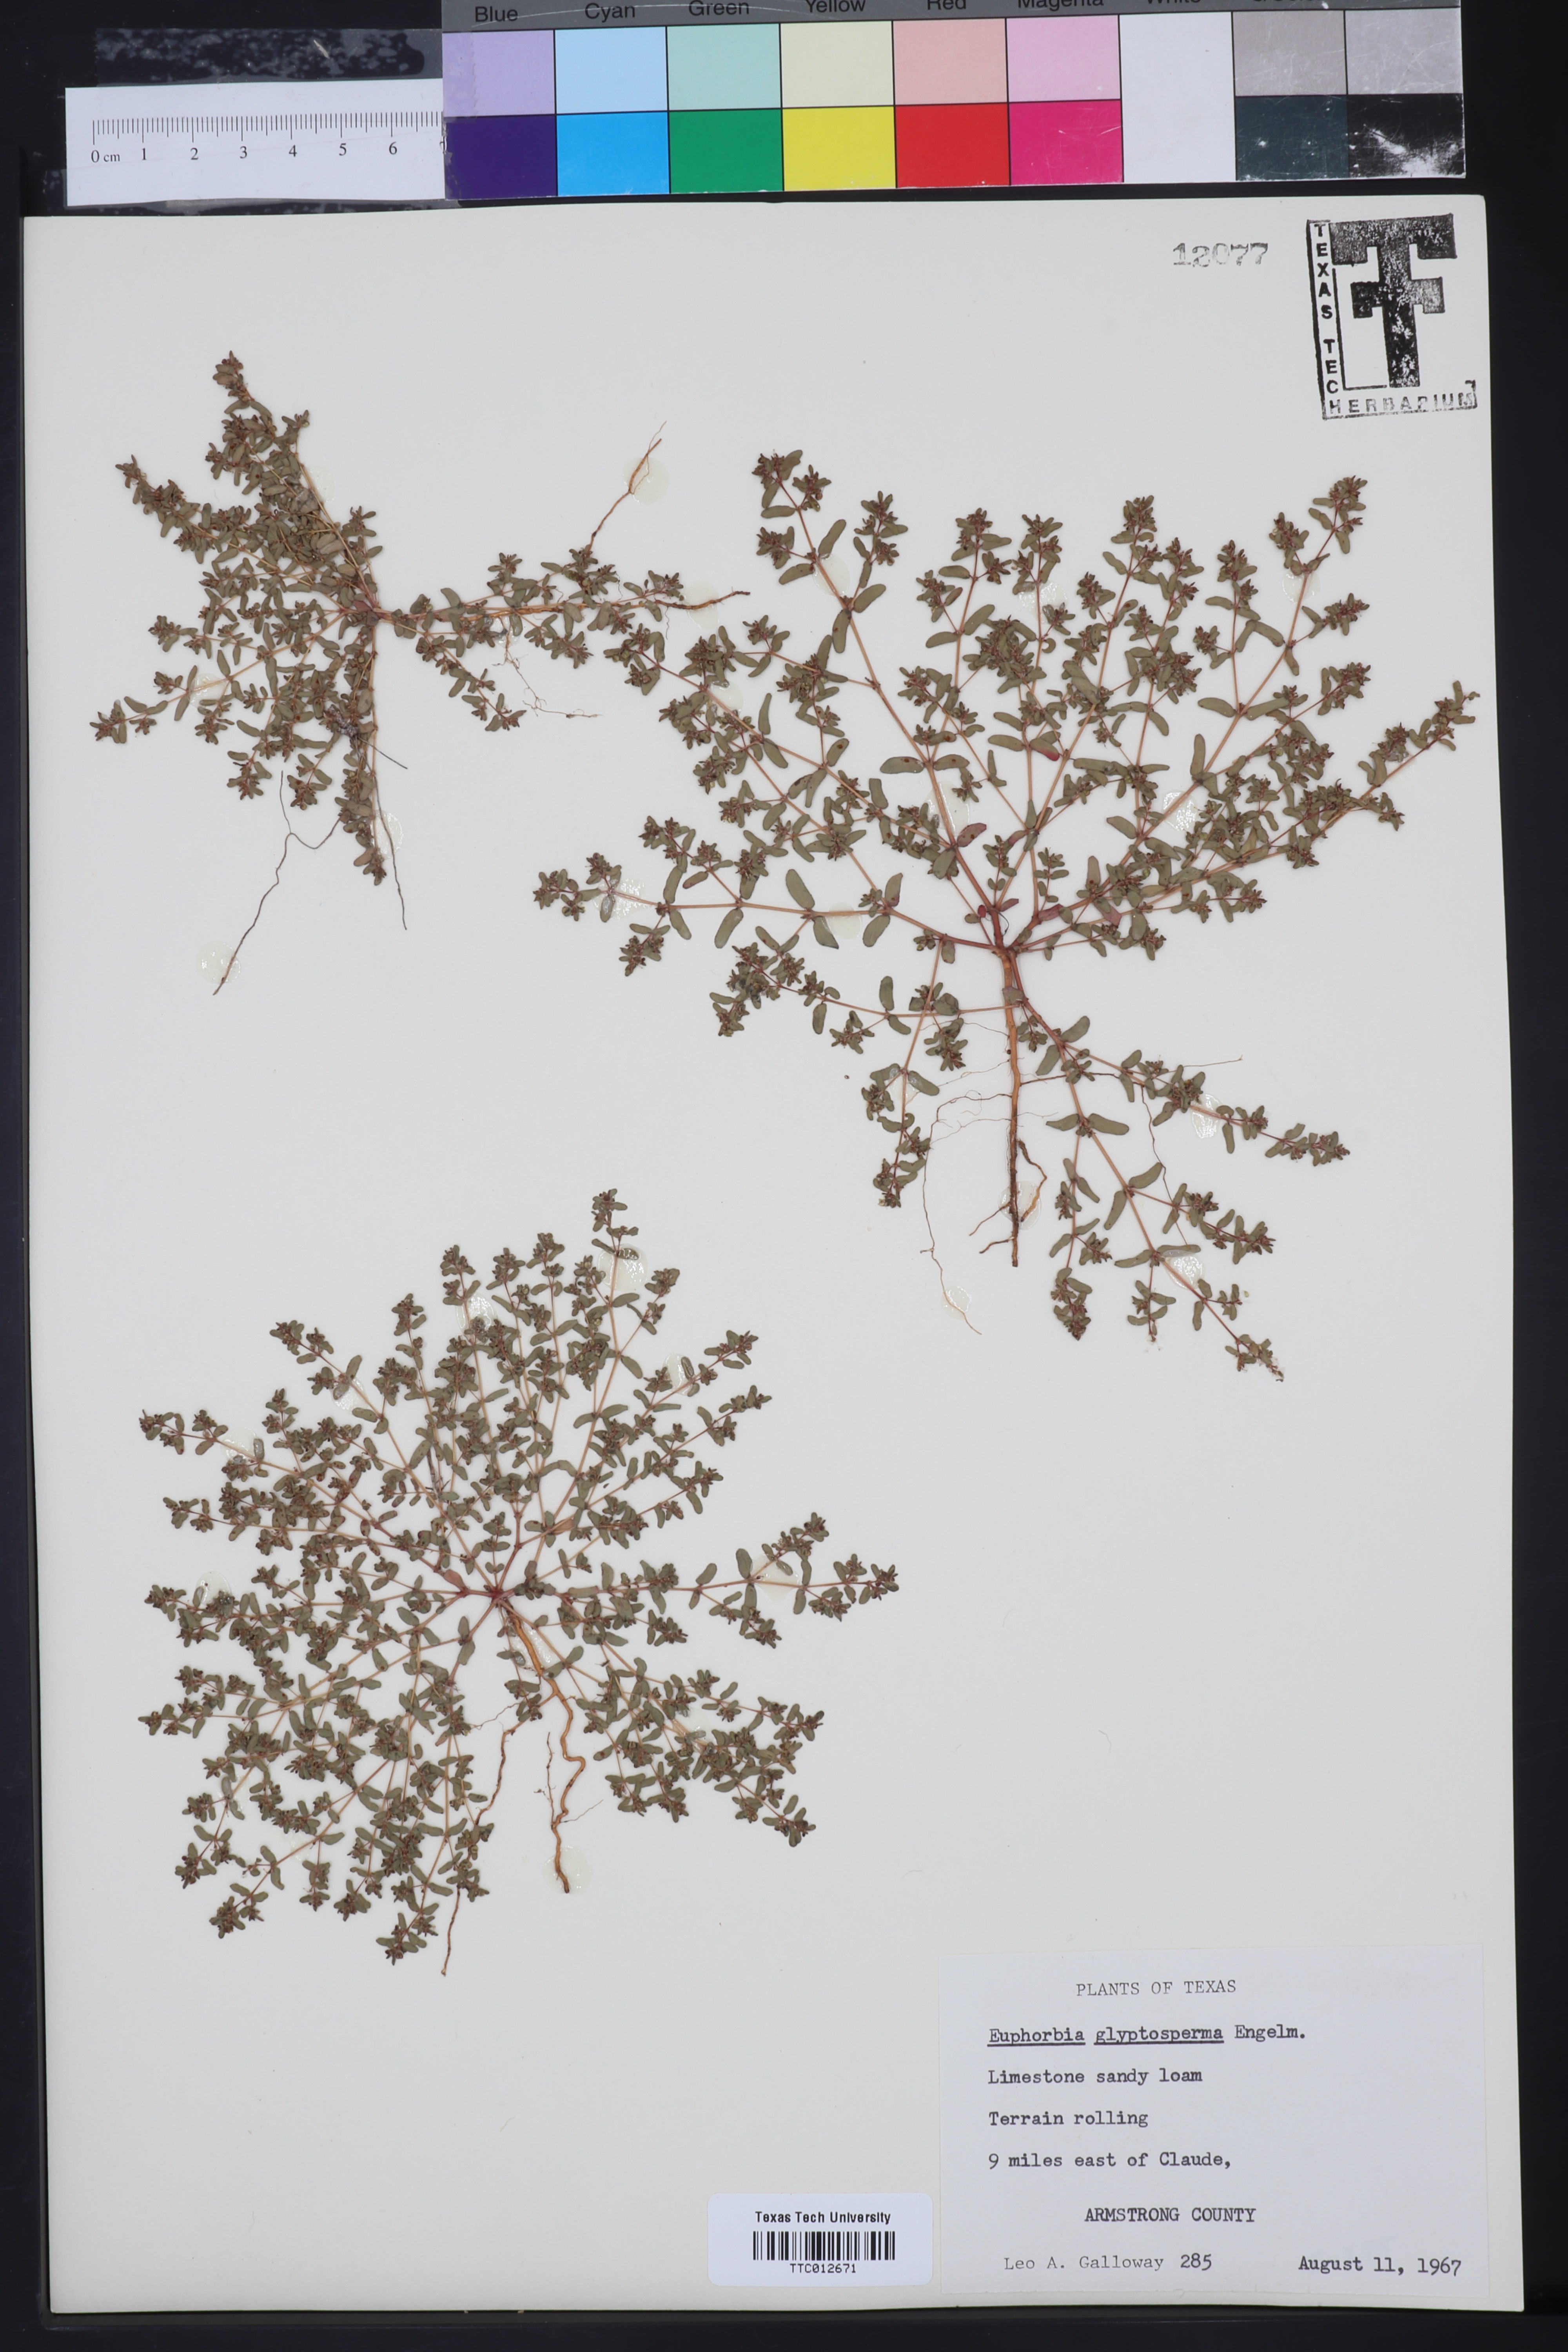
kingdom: Plantae
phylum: Tracheophyta
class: Magnoliopsida
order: Malpighiales
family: Euphorbiaceae
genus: Euphorbia
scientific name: Euphorbia glyptosperma
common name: Corrugate-seeded spurge
